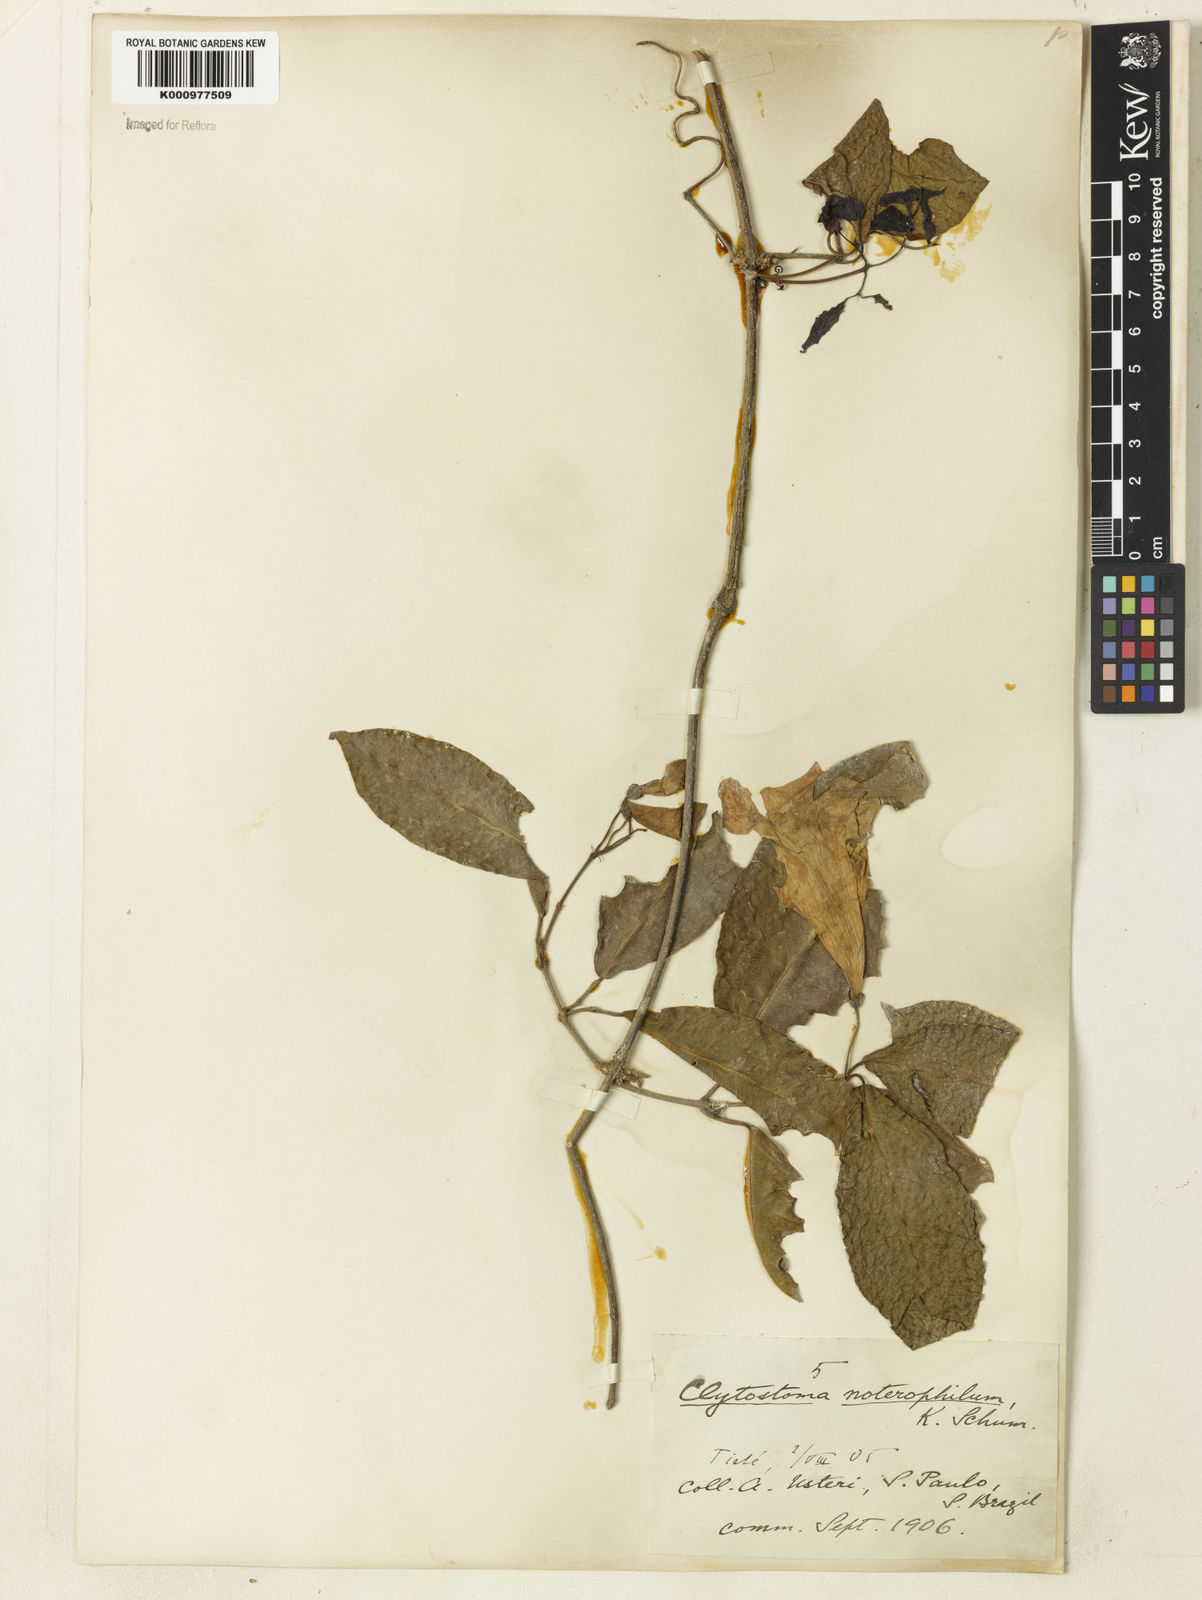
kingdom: Plantae
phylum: Tracheophyta
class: Magnoliopsida
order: Lamiales
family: Bignoniaceae
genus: Bignonia
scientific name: Bignonia binata
